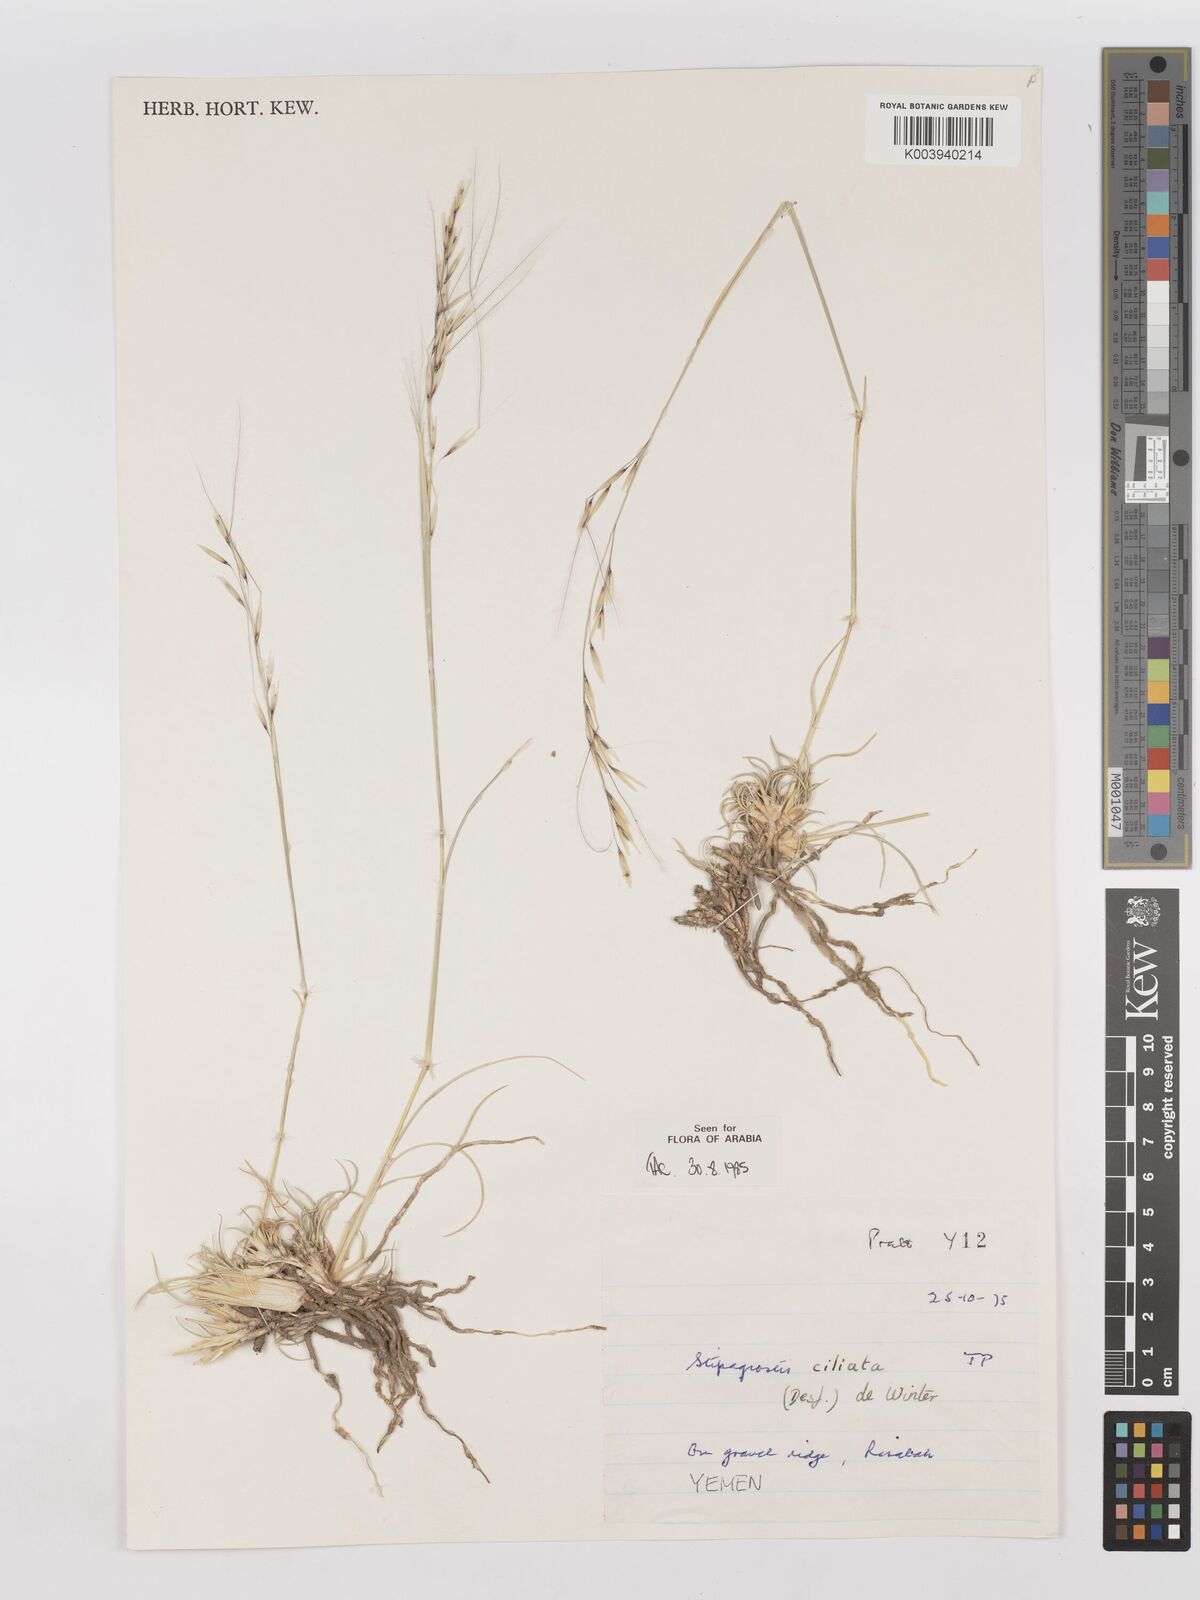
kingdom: Plantae
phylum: Tracheophyta
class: Liliopsida
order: Poales
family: Poaceae
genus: Stipagrostis
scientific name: Stipagrostis ciliata
